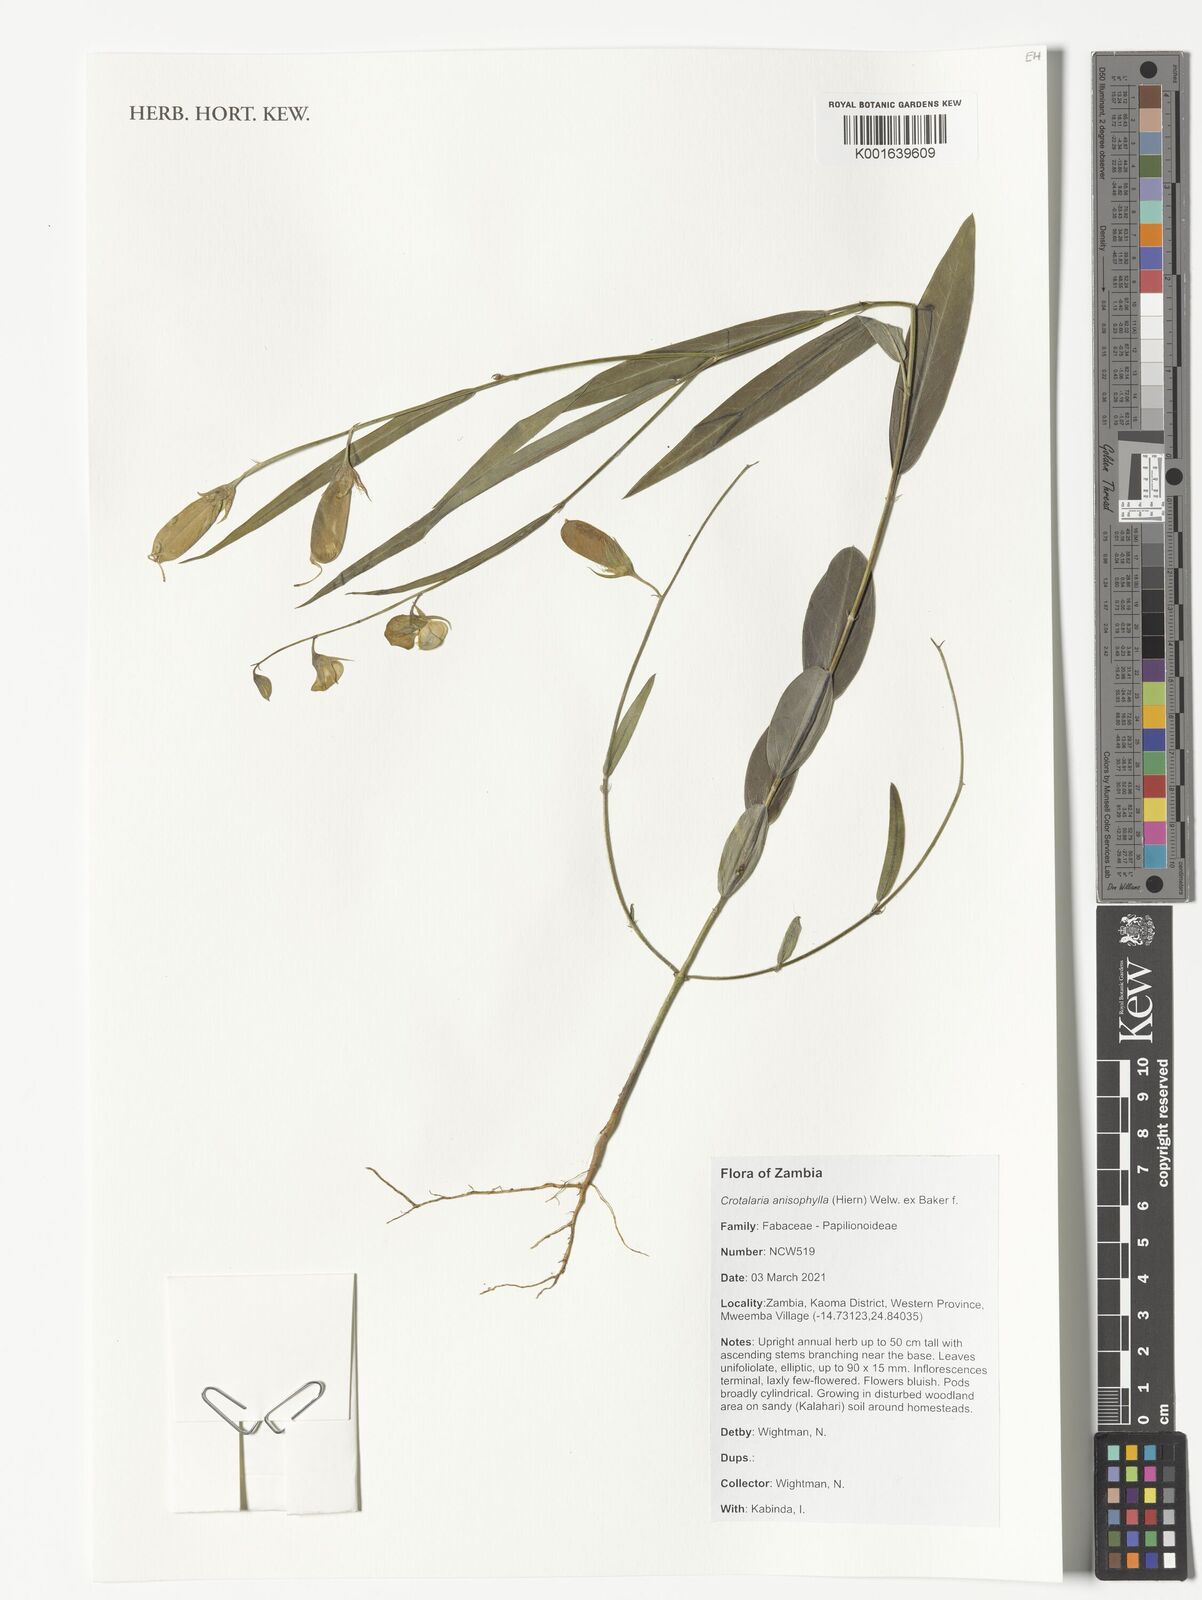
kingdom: Plantae
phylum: Tracheophyta
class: Magnoliopsida
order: Fabales
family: Fabaceae
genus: Crotalaria
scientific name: Crotalaria anisophylla
